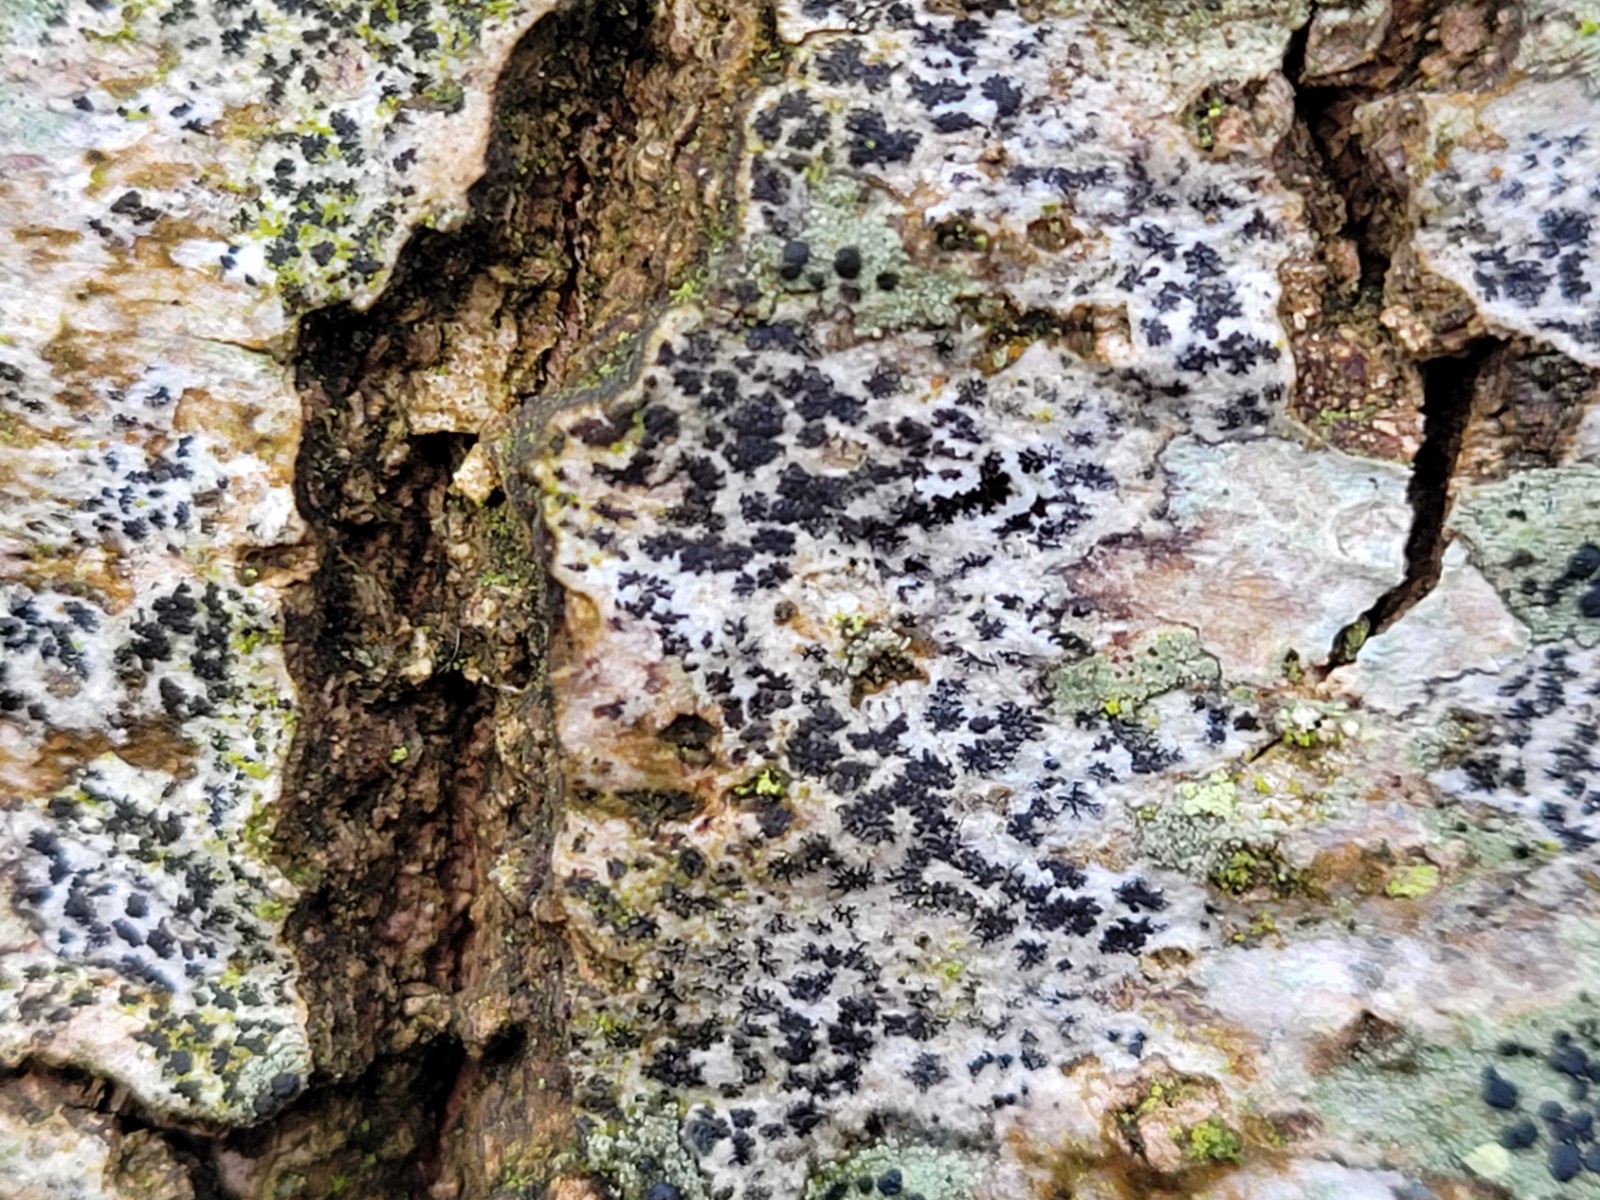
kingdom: Fungi
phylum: Ascomycota
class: Arthoniomycetes
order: Arthoniales
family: Arthoniaceae
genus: Arthonia
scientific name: Arthonia radiata
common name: stjerne-pletlav
